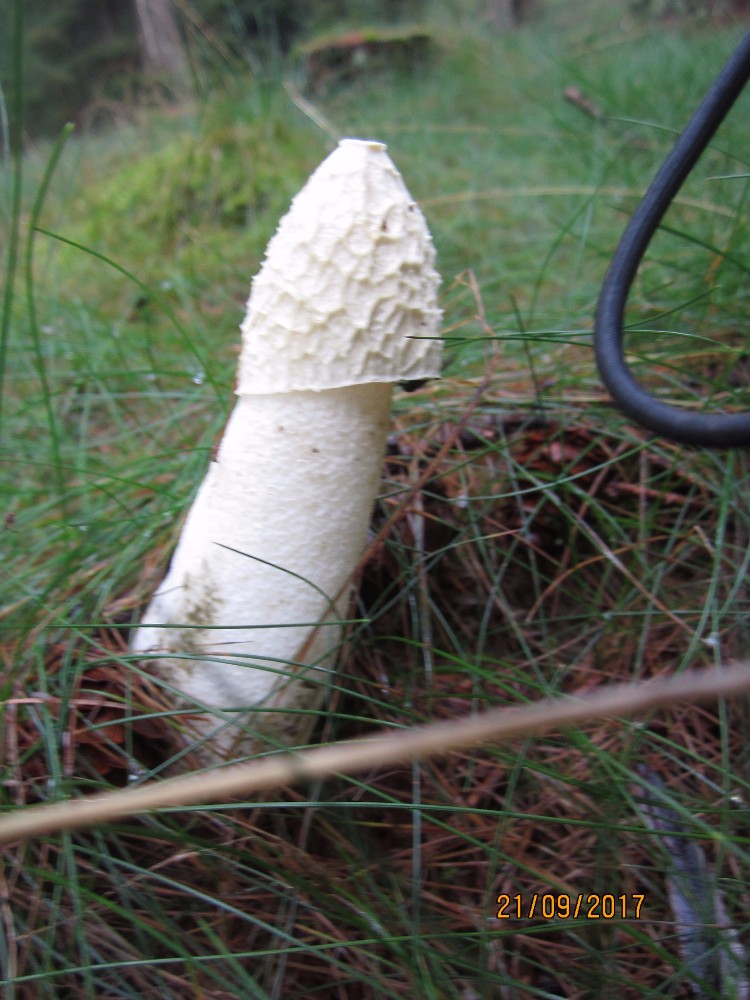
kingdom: Fungi
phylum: Basidiomycota
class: Agaricomycetes
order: Phallales
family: Phallaceae
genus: Phallus
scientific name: Phallus impudicus
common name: almindelig stinksvamp
